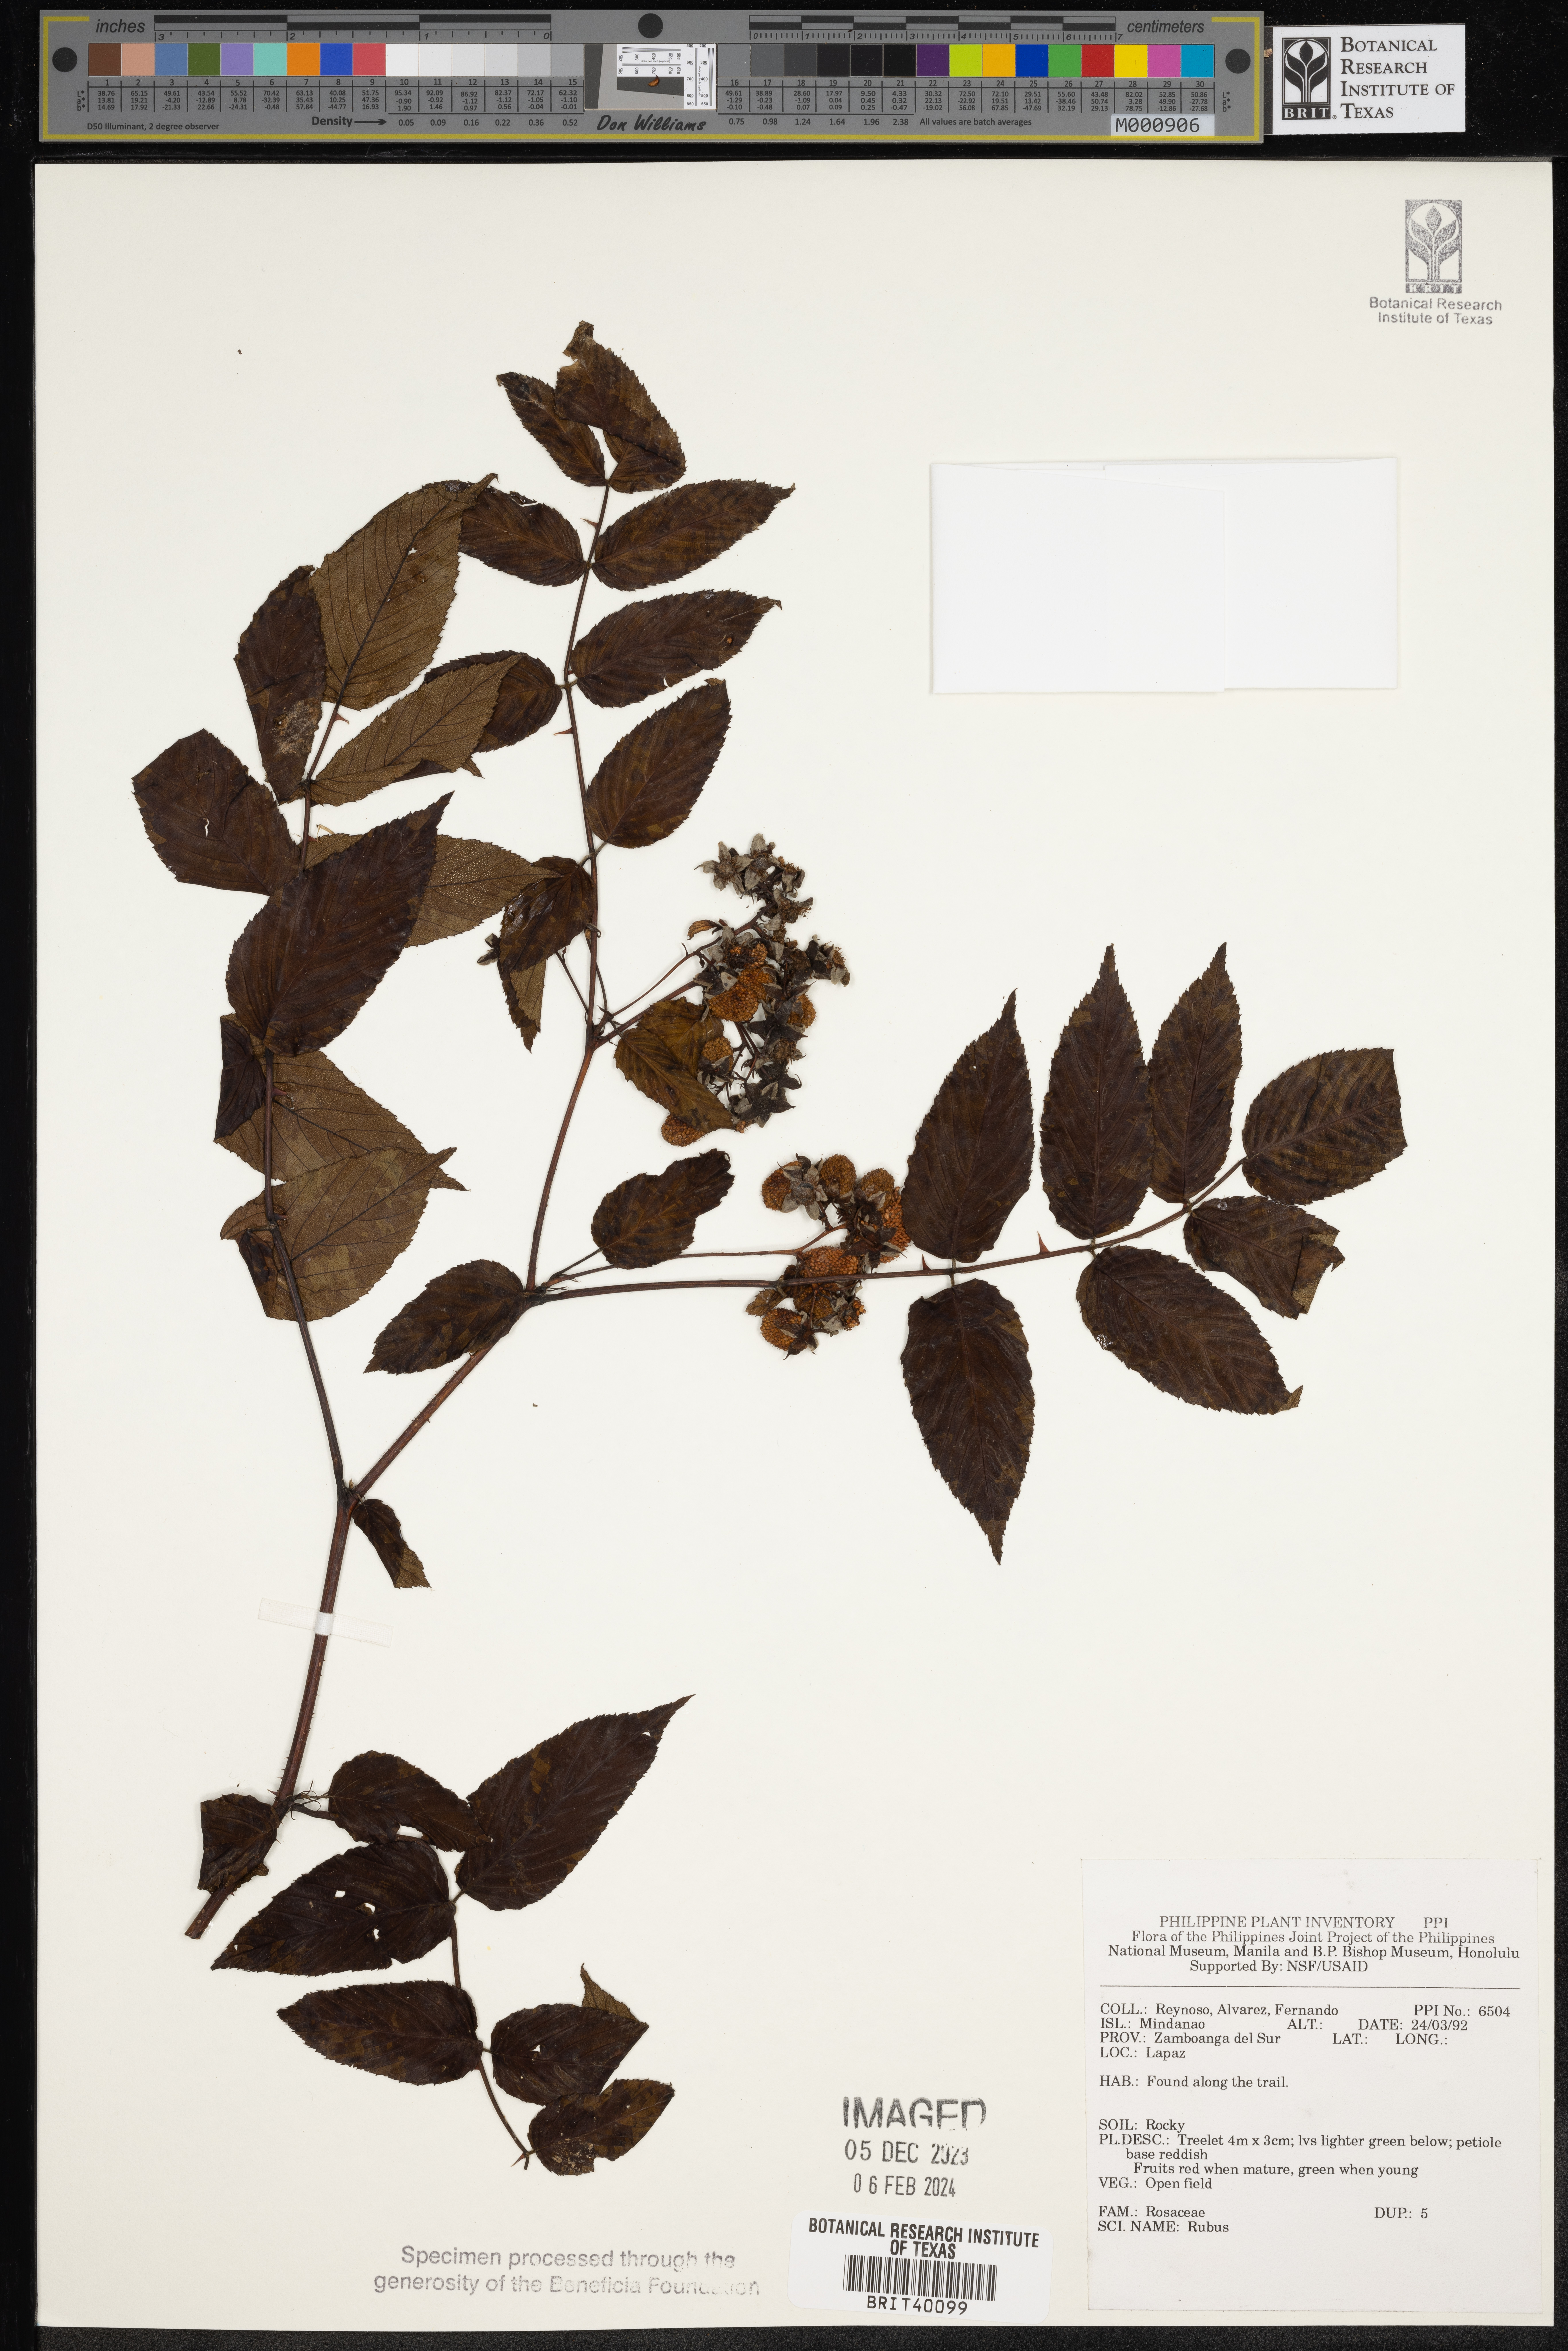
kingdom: Plantae
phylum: Tracheophyta
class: Magnoliopsida
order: Rosales
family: Rosaceae
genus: Rubus
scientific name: Rubus
